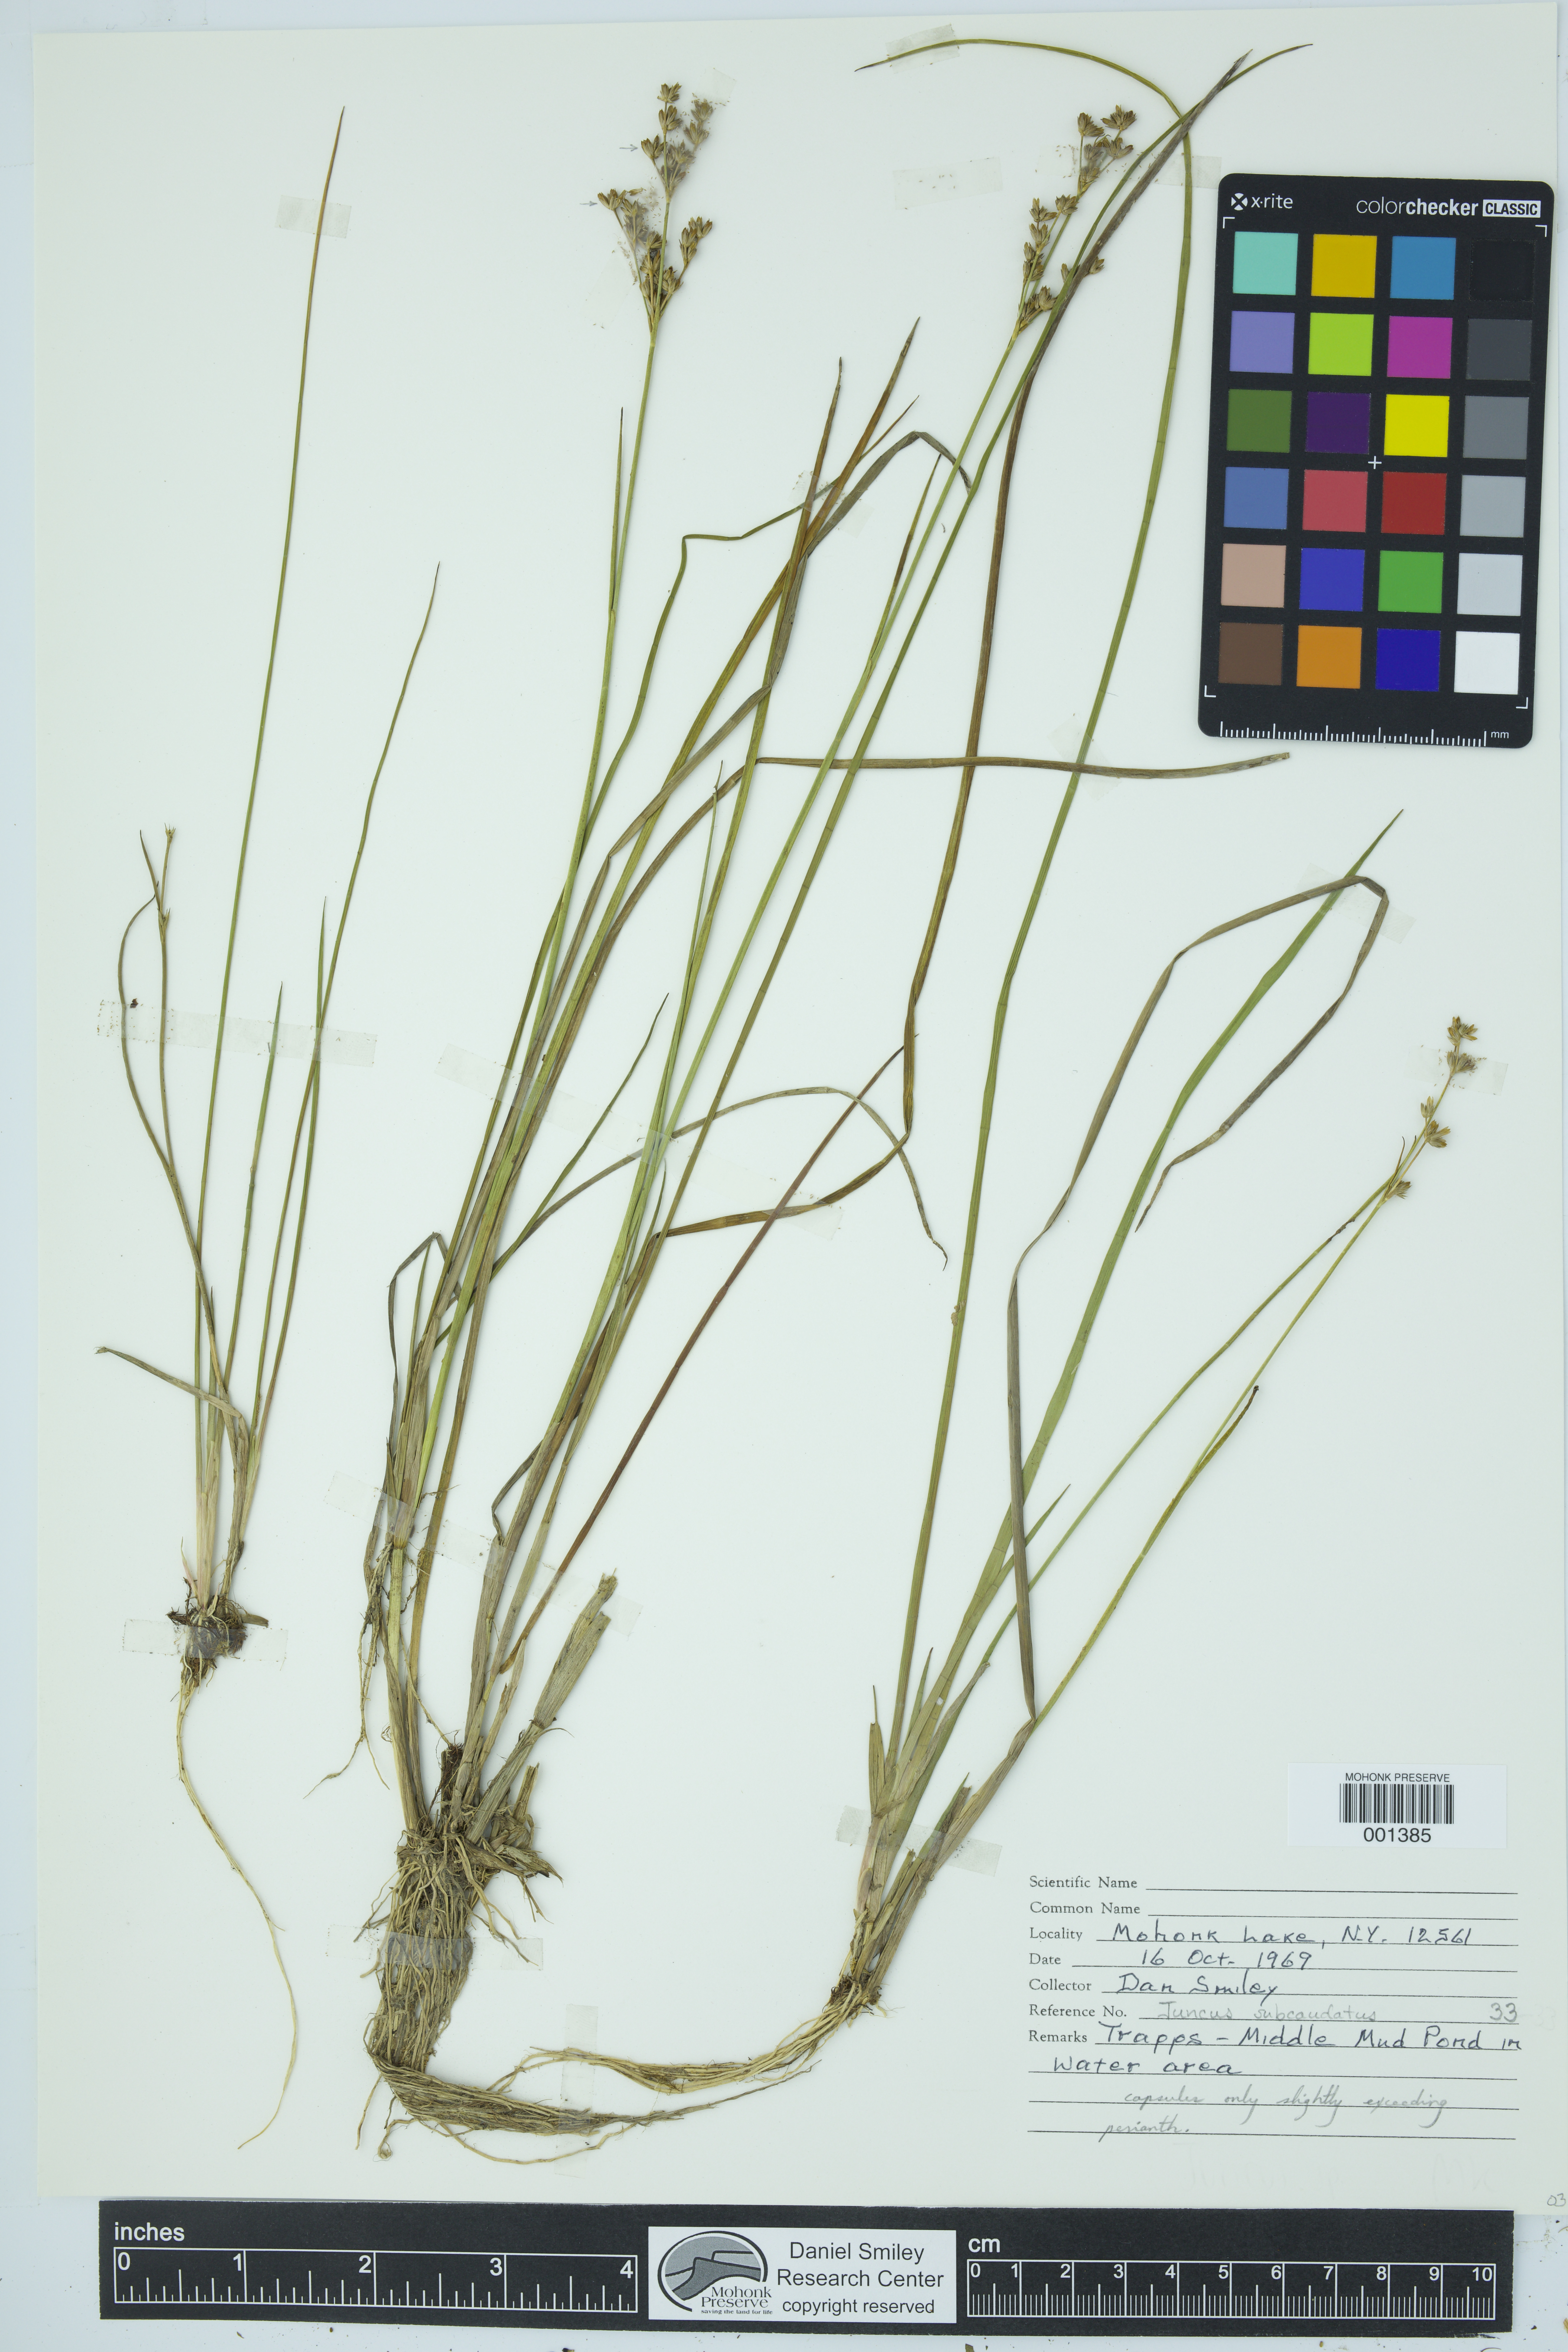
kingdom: Plantae
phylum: Tracheophyta
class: Liliopsida
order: Poales
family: Juncaceae
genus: Juncus
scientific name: Juncus subcaudatus
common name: Engelmann's rush
